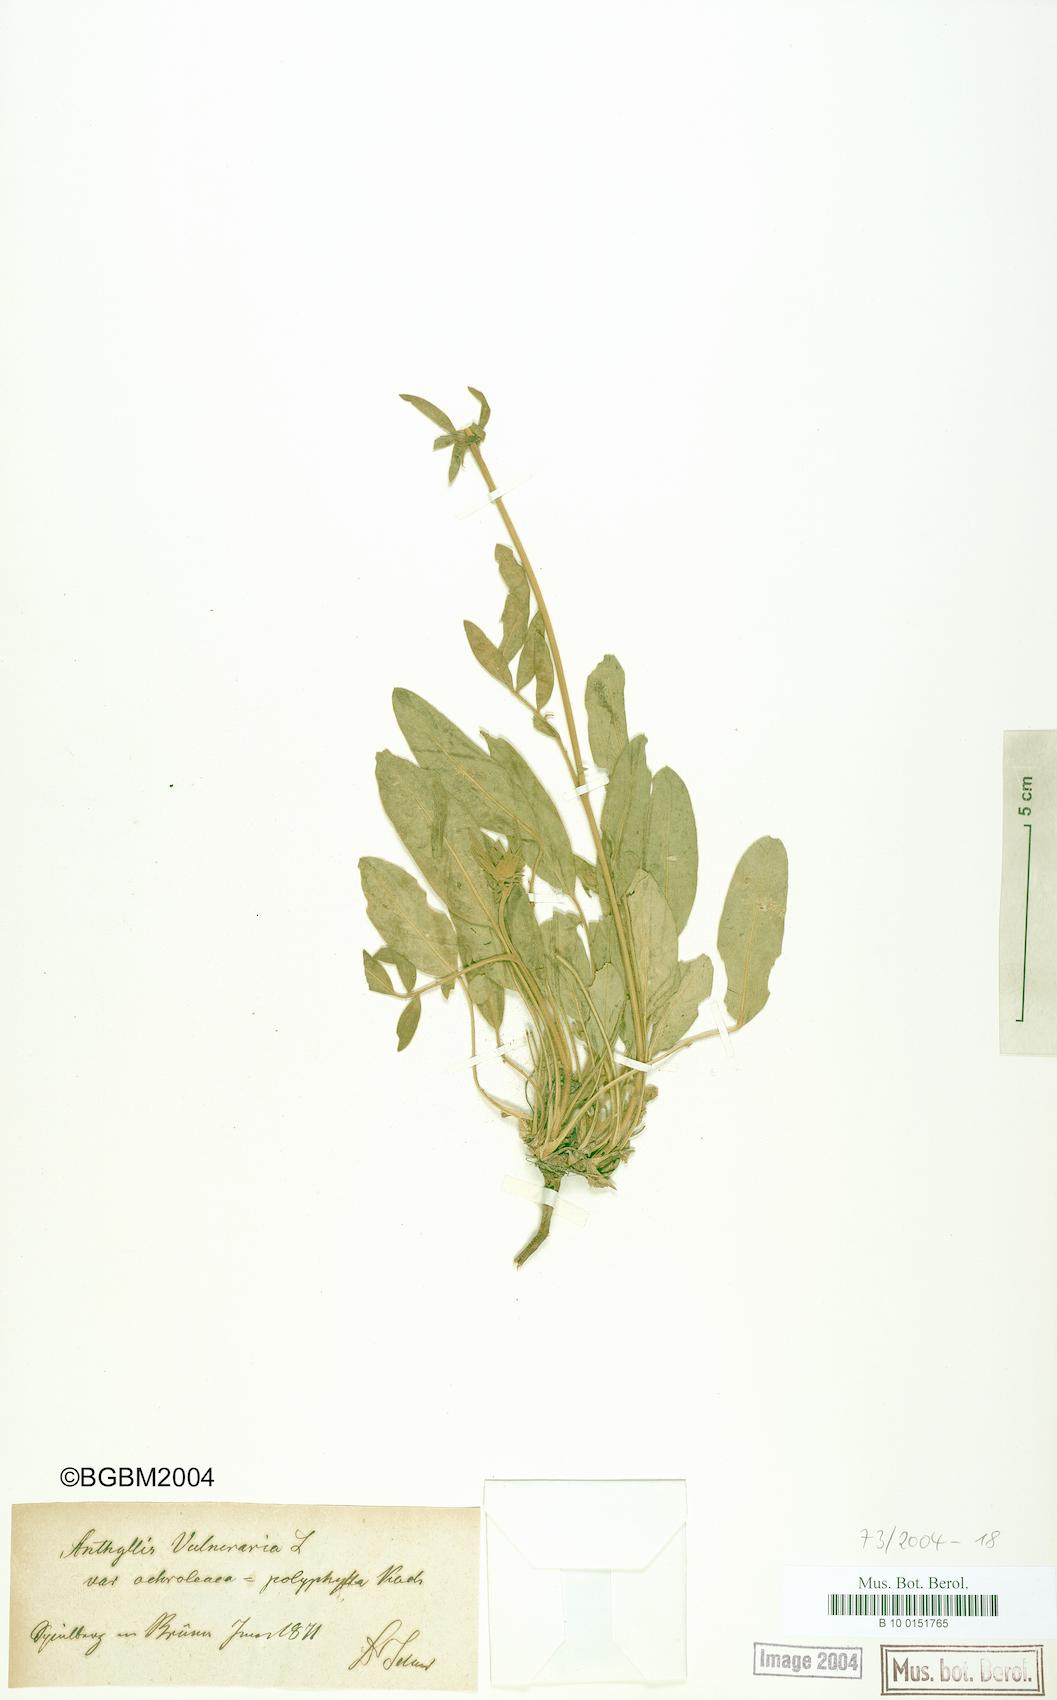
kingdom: Plantae
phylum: Tracheophyta
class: Magnoliopsida
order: Fabales
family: Fabaceae
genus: Anthyllis
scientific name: Anthyllis vulneraria
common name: Kidney vetch
